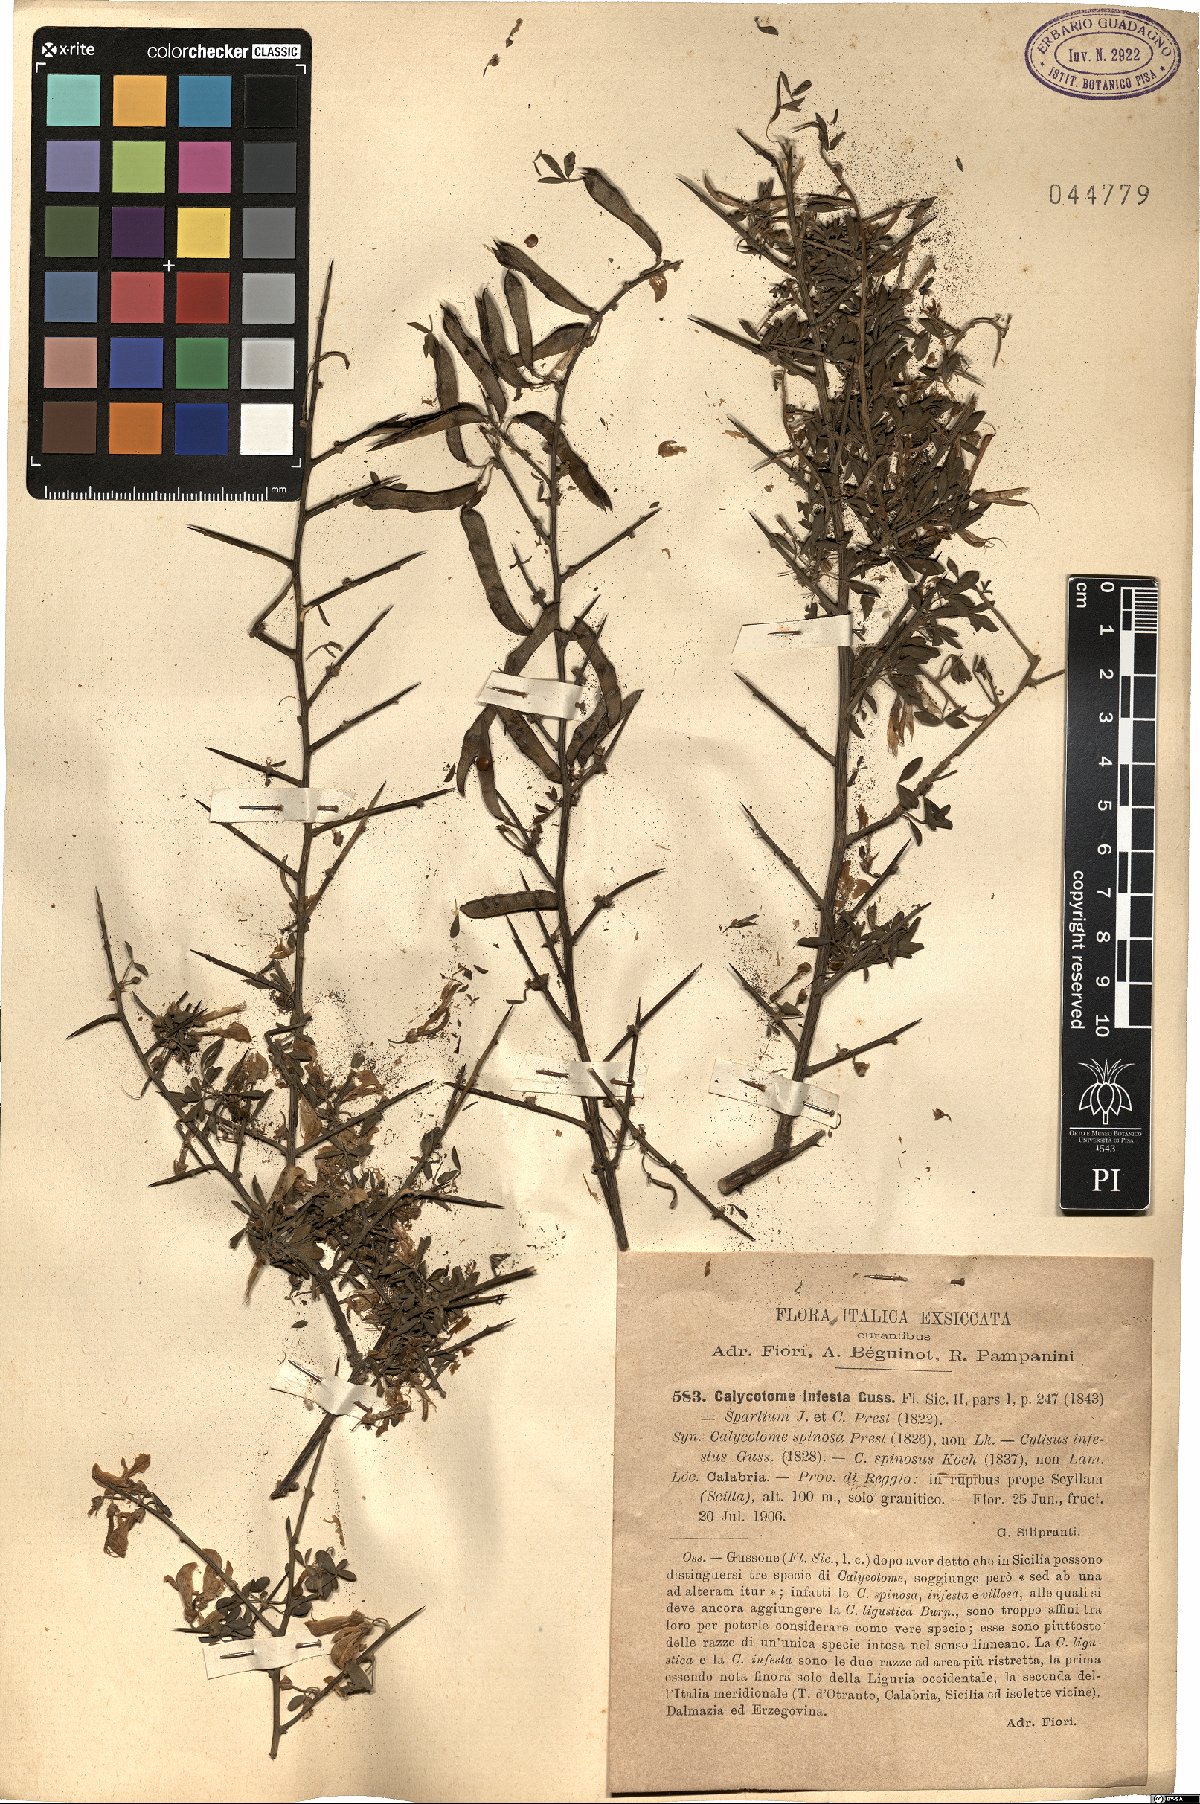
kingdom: Plantae
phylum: Tracheophyta
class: Magnoliopsida
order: Fabales
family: Fabaceae
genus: Calicotome
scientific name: Calicotome infesta
